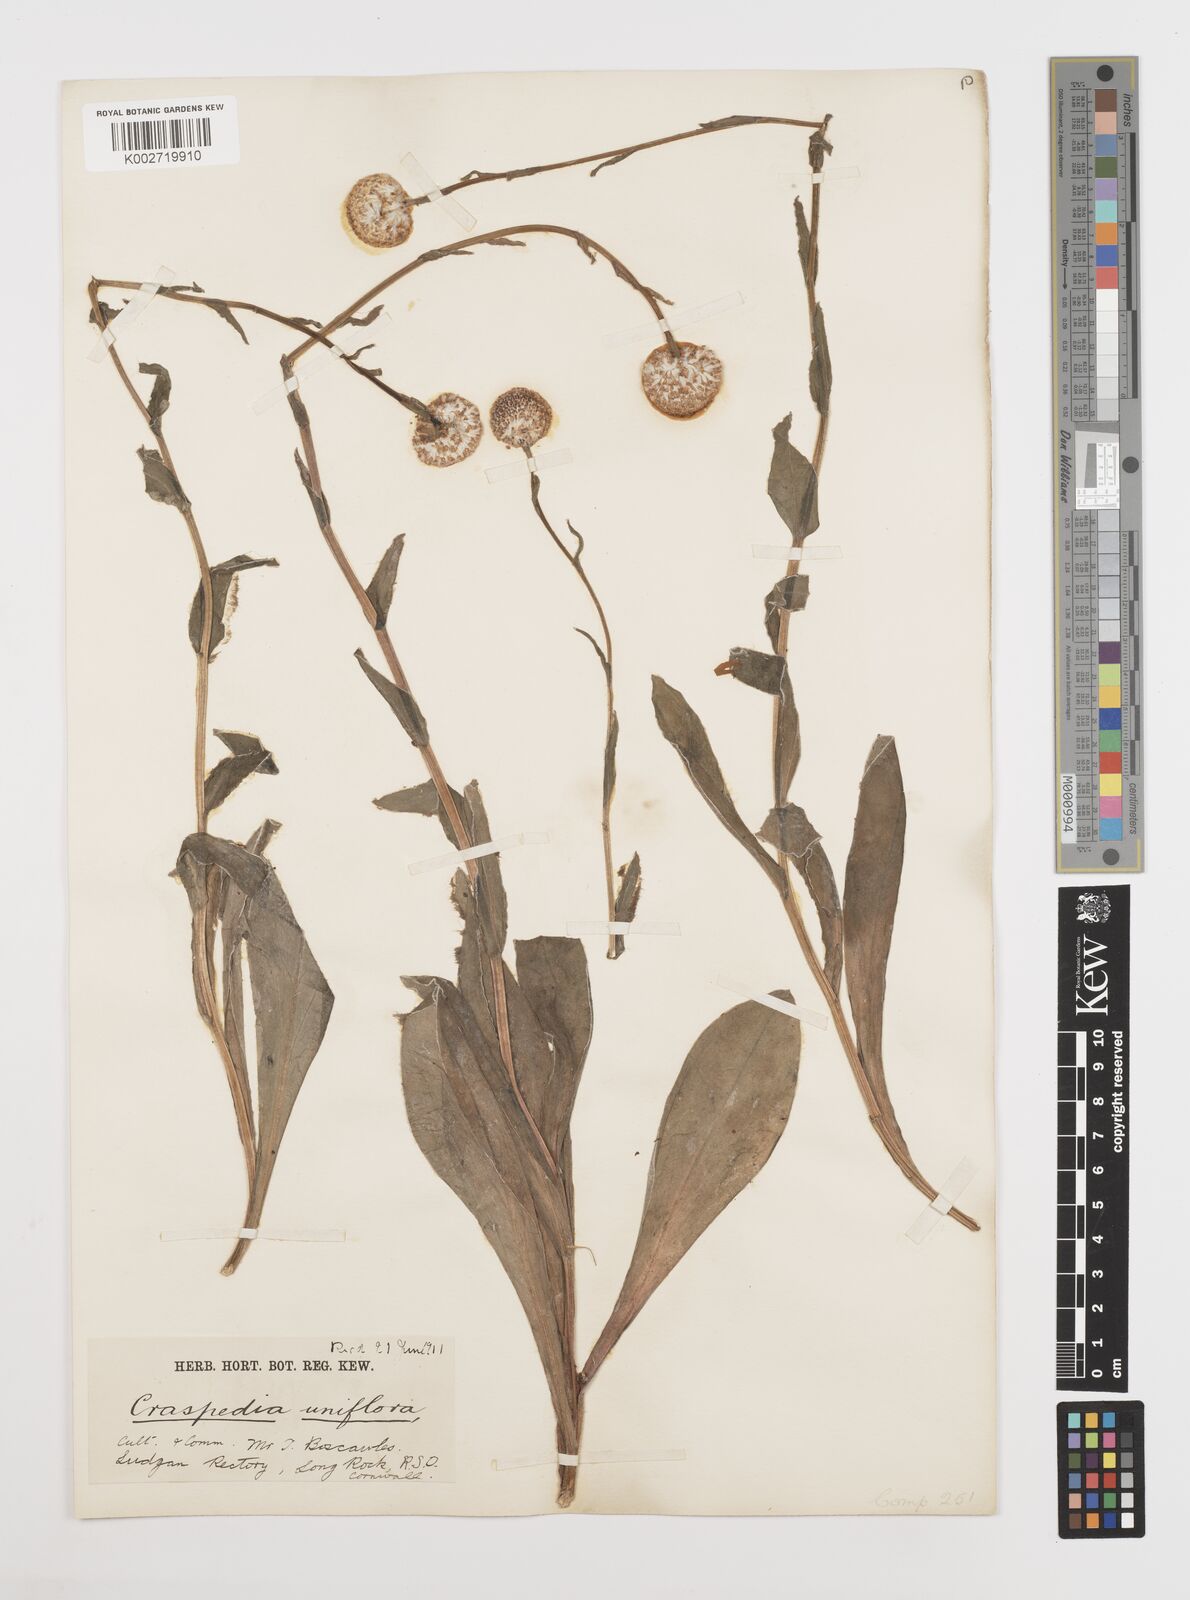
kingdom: Plantae
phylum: Tracheophyta
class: Magnoliopsida
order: Asterales
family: Asteraceae
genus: Craspedia
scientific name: Craspedia macrocephala
